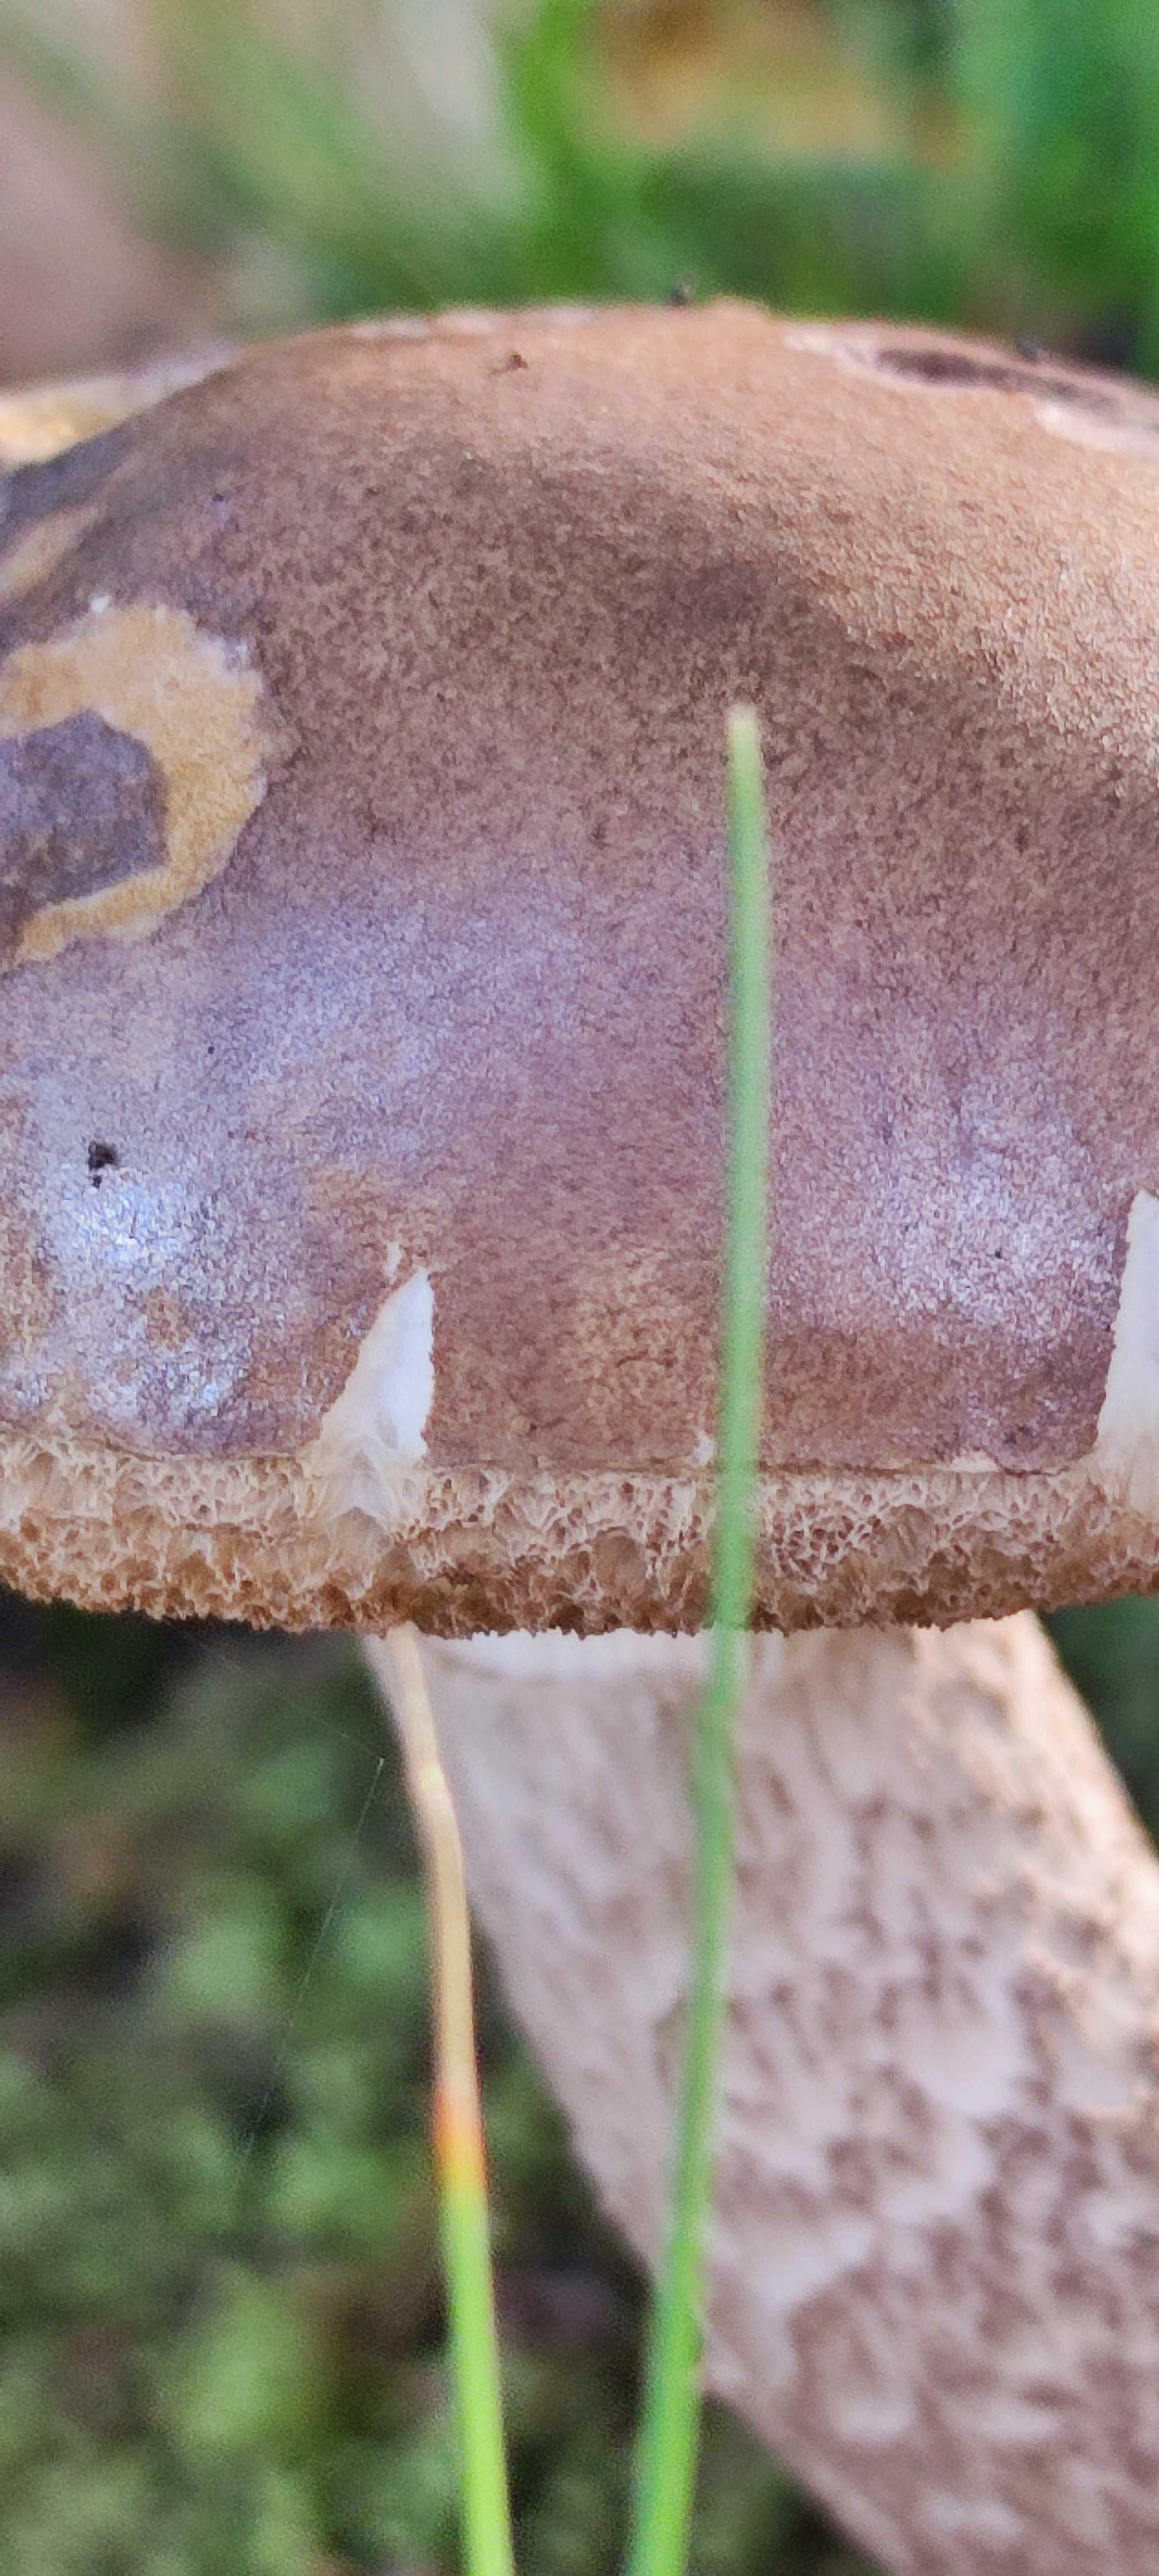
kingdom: Fungi
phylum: Basidiomycota
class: Agaricomycetes
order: Boletales
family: Boletaceae
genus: Leccinum
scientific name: Leccinum
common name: skælrørhat
